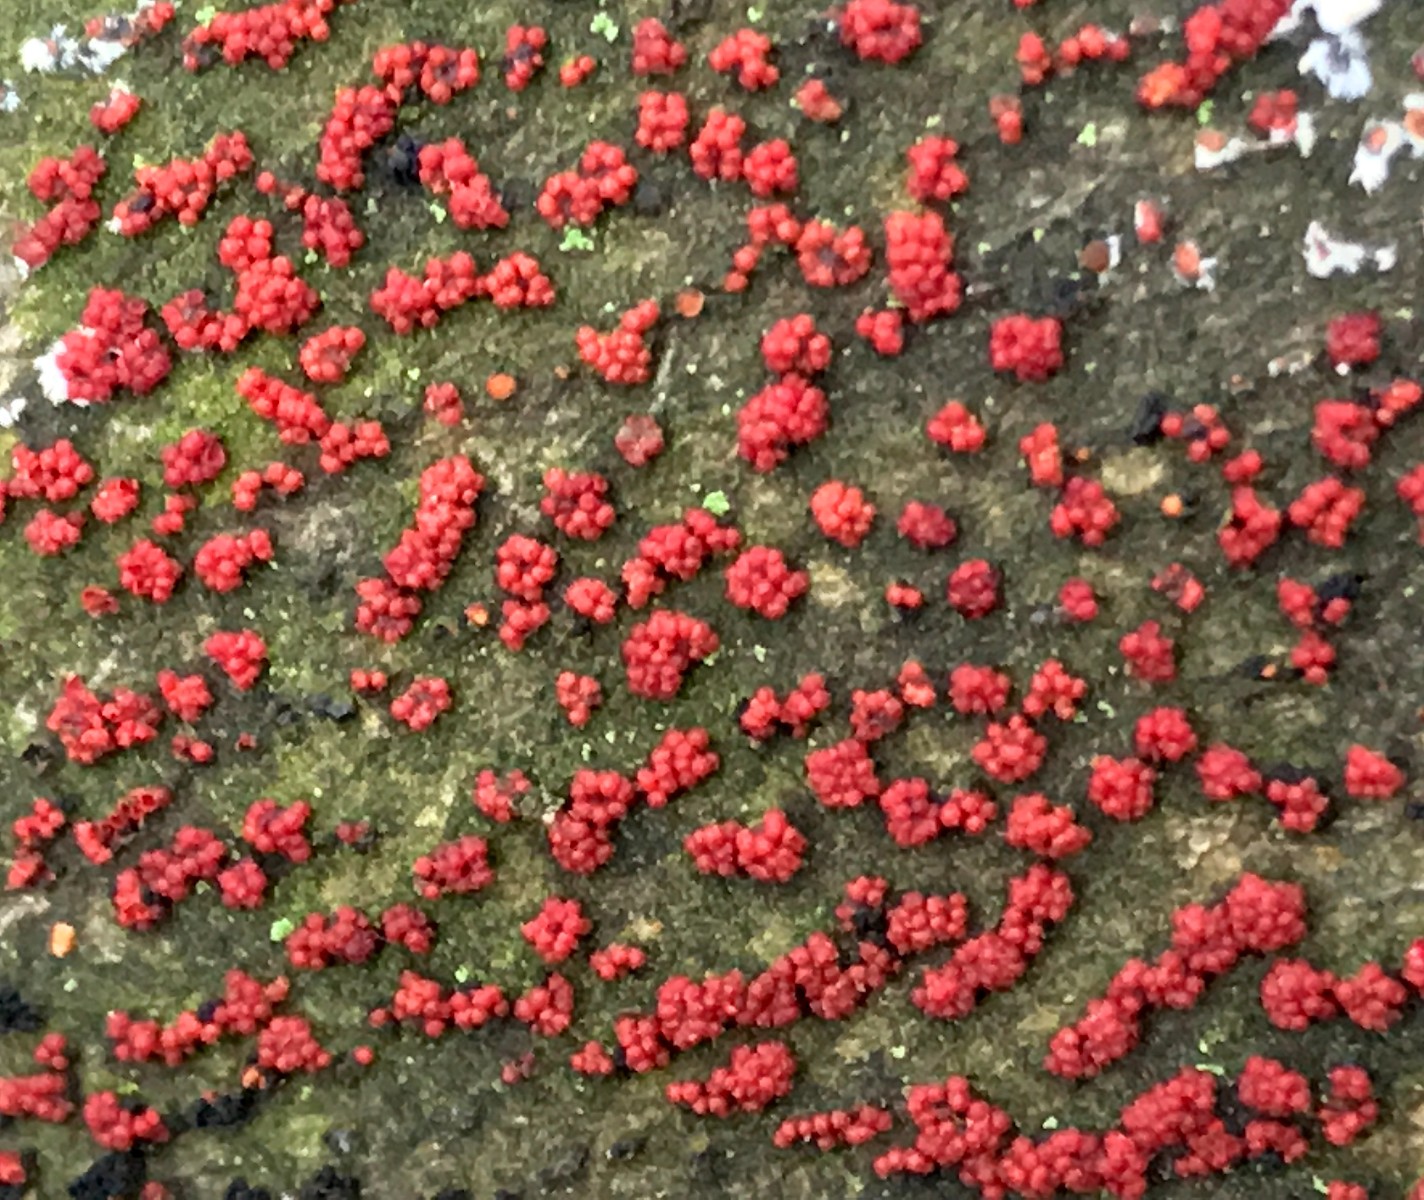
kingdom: Fungi
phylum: Ascomycota
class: Sordariomycetes
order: Hypocreales
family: Nectriaceae
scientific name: Nectriaceae
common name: cinnobersvampfamilien
